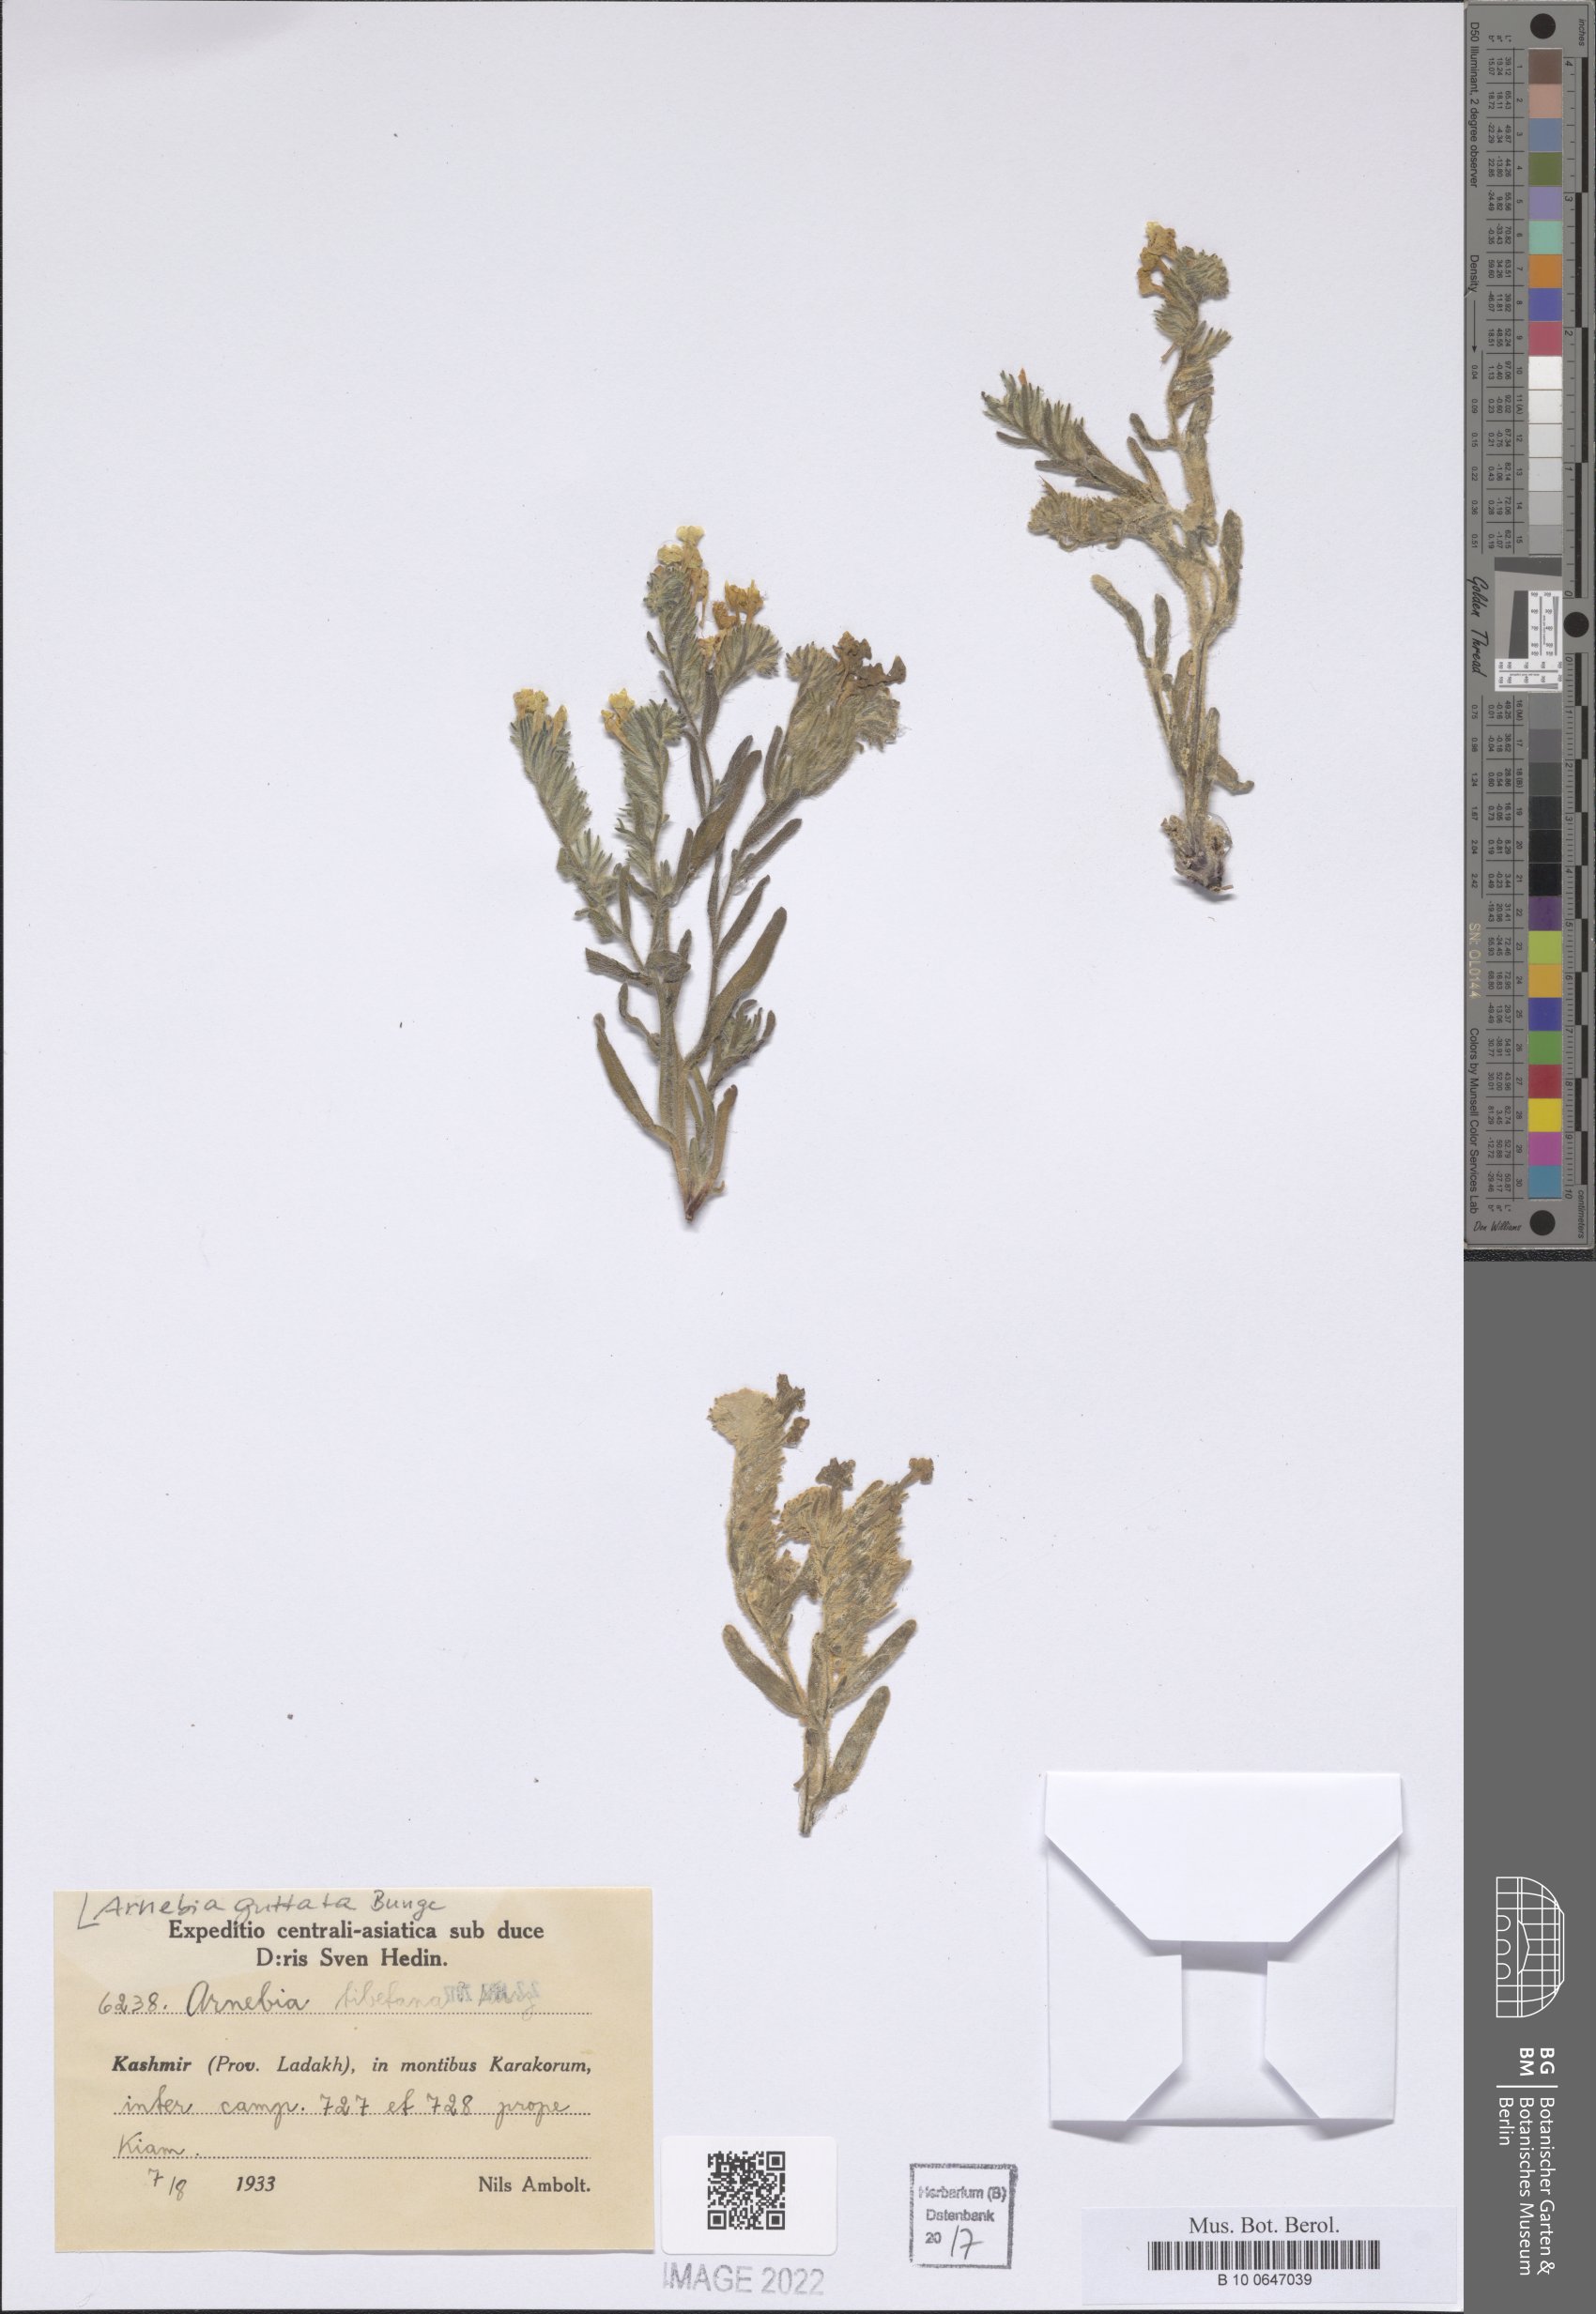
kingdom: Plantae
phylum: Tracheophyta
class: Magnoliopsida
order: Boraginales
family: Boraginaceae
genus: Arnebia
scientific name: Arnebia guttata
